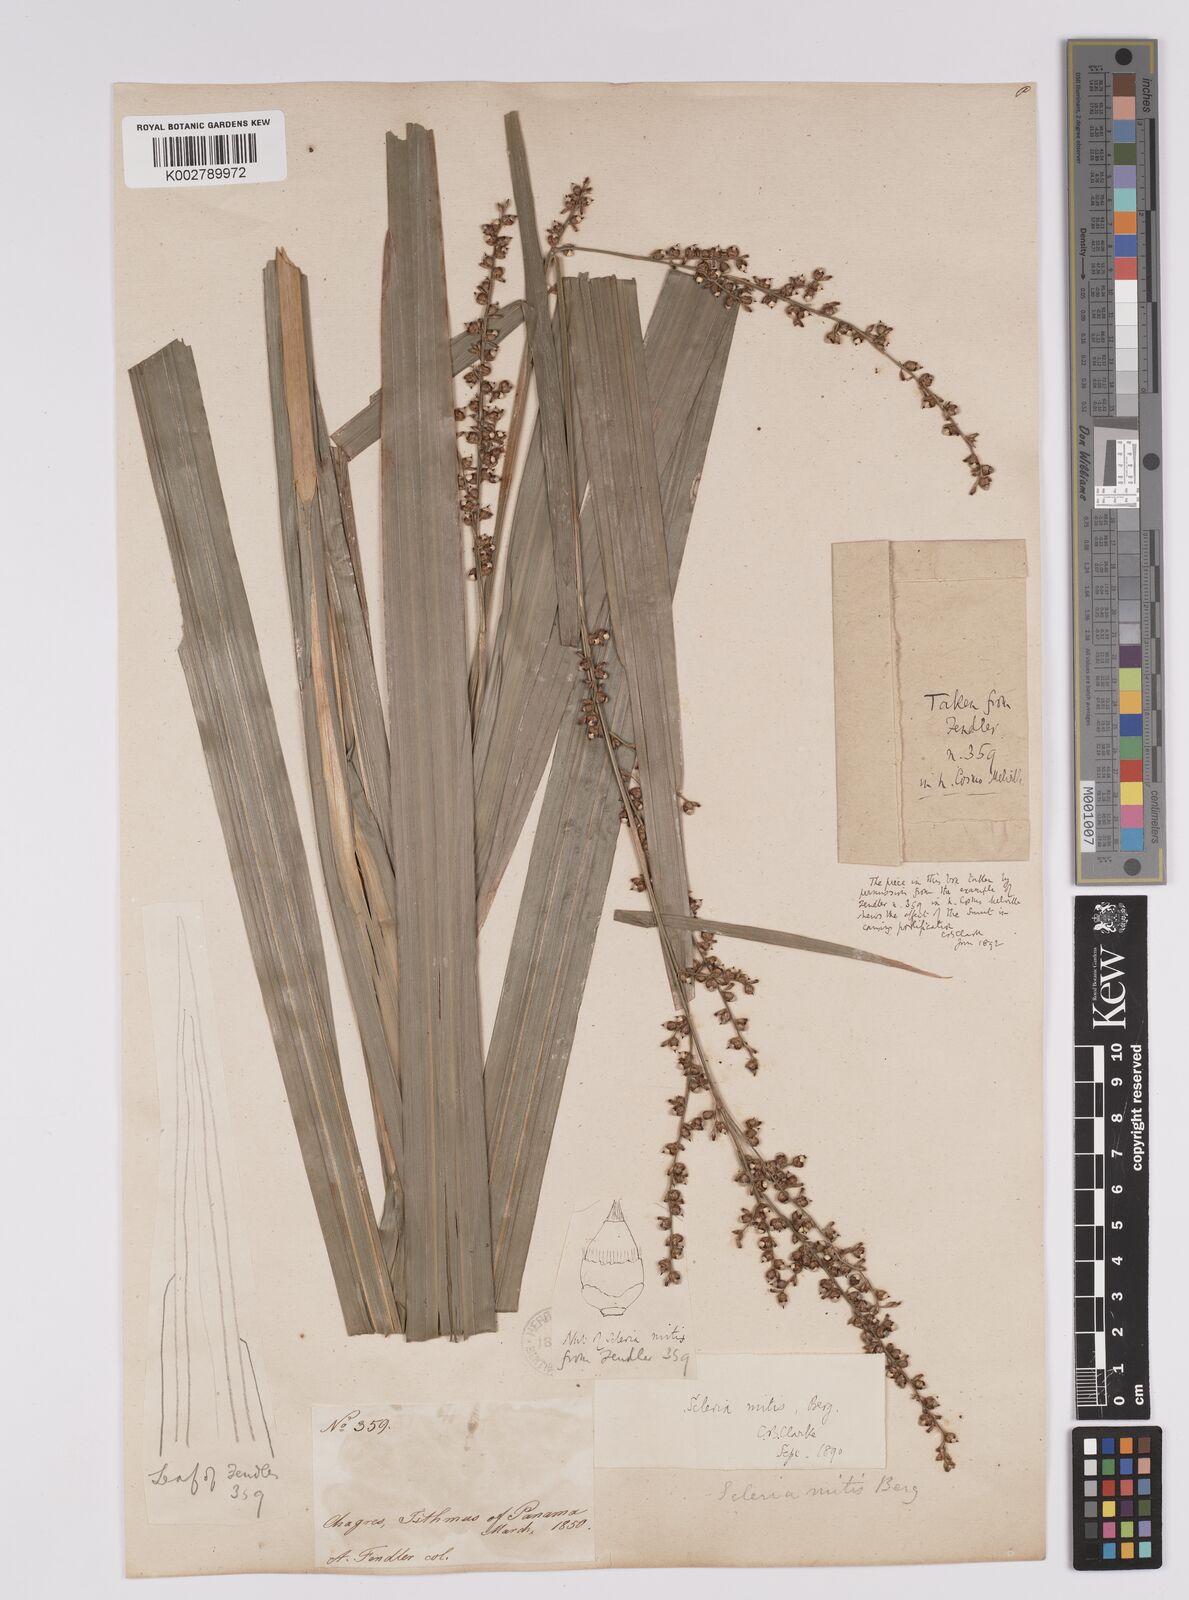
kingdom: Plantae
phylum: Tracheophyta
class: Liliopsida
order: Poales
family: Cyperaceae
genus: Scleria
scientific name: Scleria mitis
